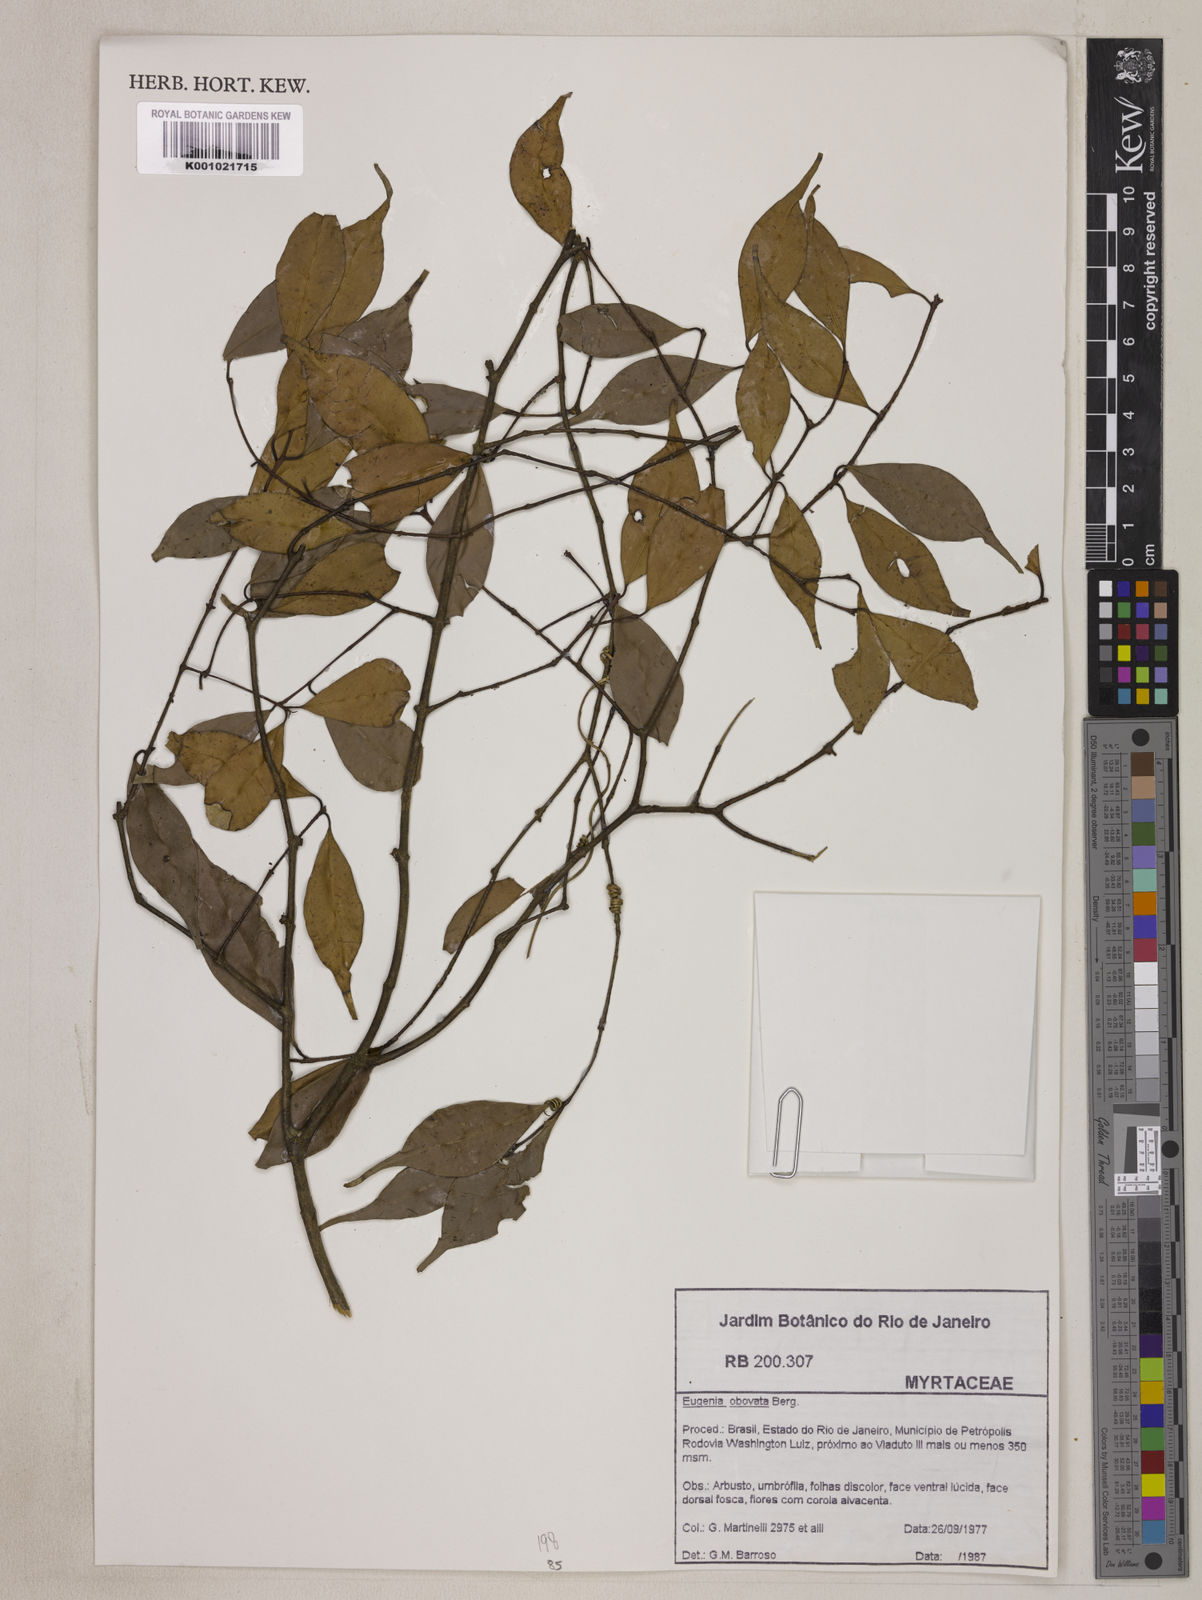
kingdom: Plantae
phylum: Tracheophyta
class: Magnoliopsida
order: Myrtales
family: Myrtaceae
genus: Eugenia
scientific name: Eugenia subterminalis
